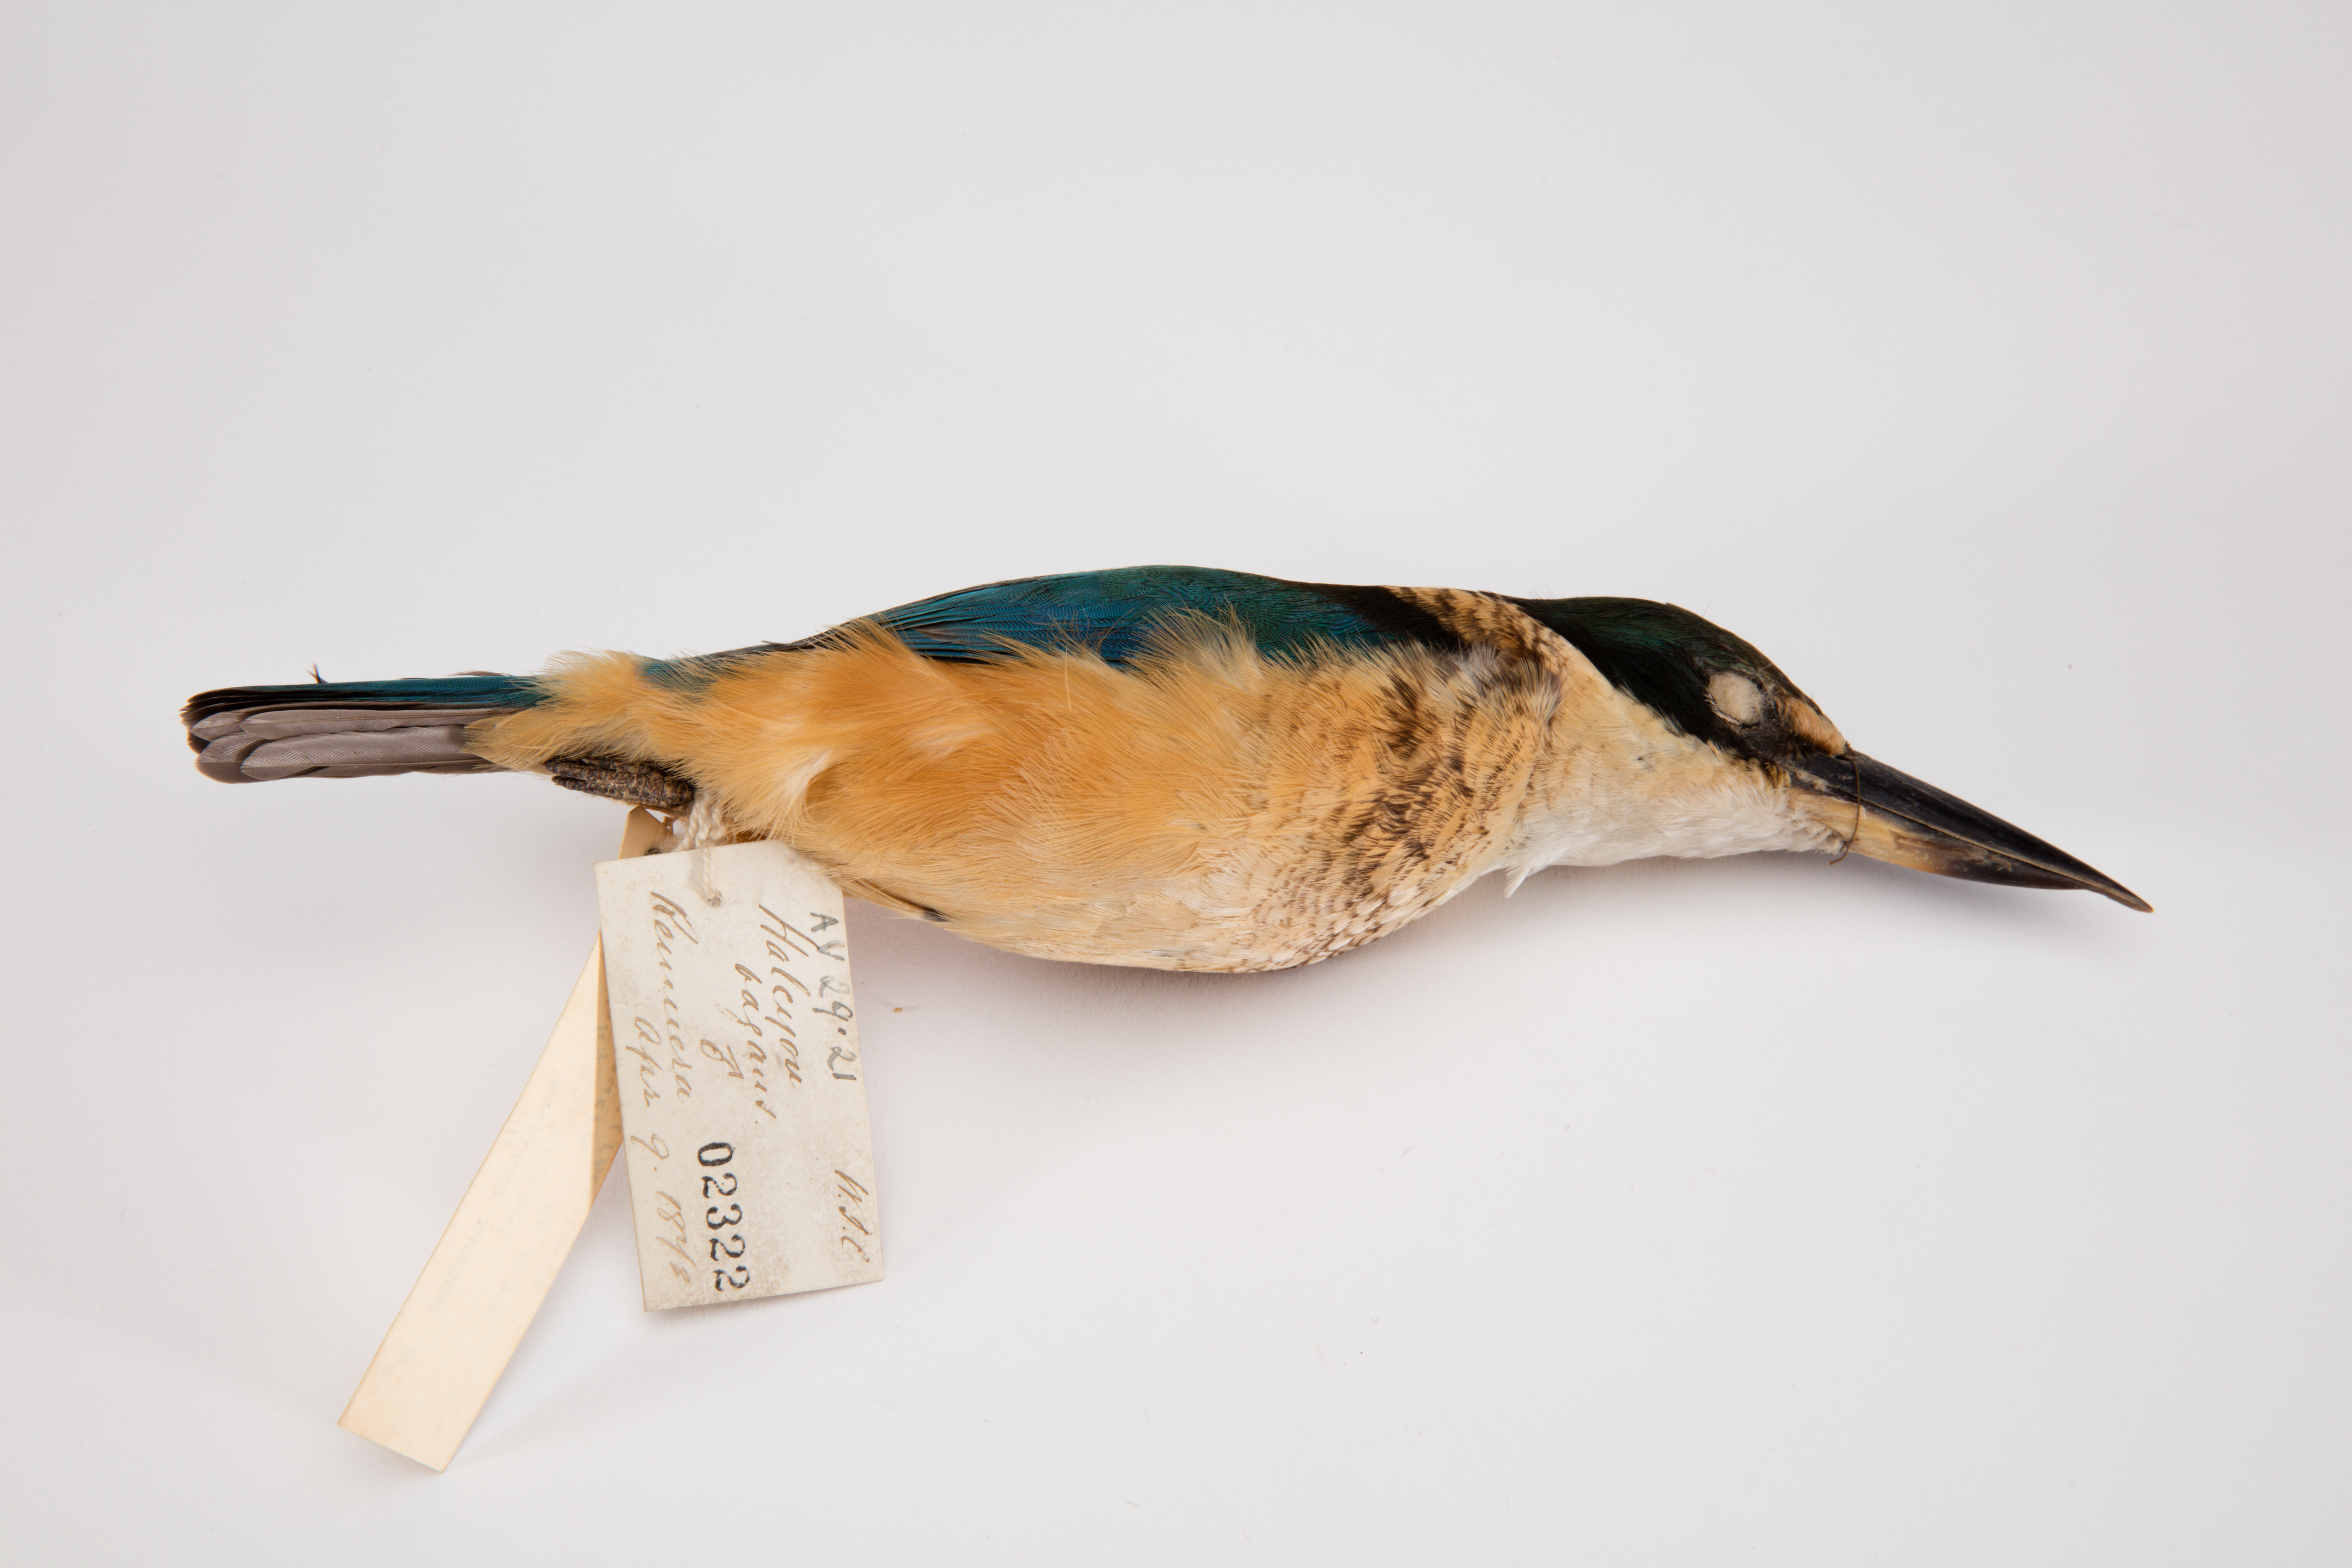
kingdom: Animalia
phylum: Chordata
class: Aves
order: Coraciiformes
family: Alcedinidae
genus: Todiramphus
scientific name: Todiramphus sanctus
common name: Sacred kingfisher
